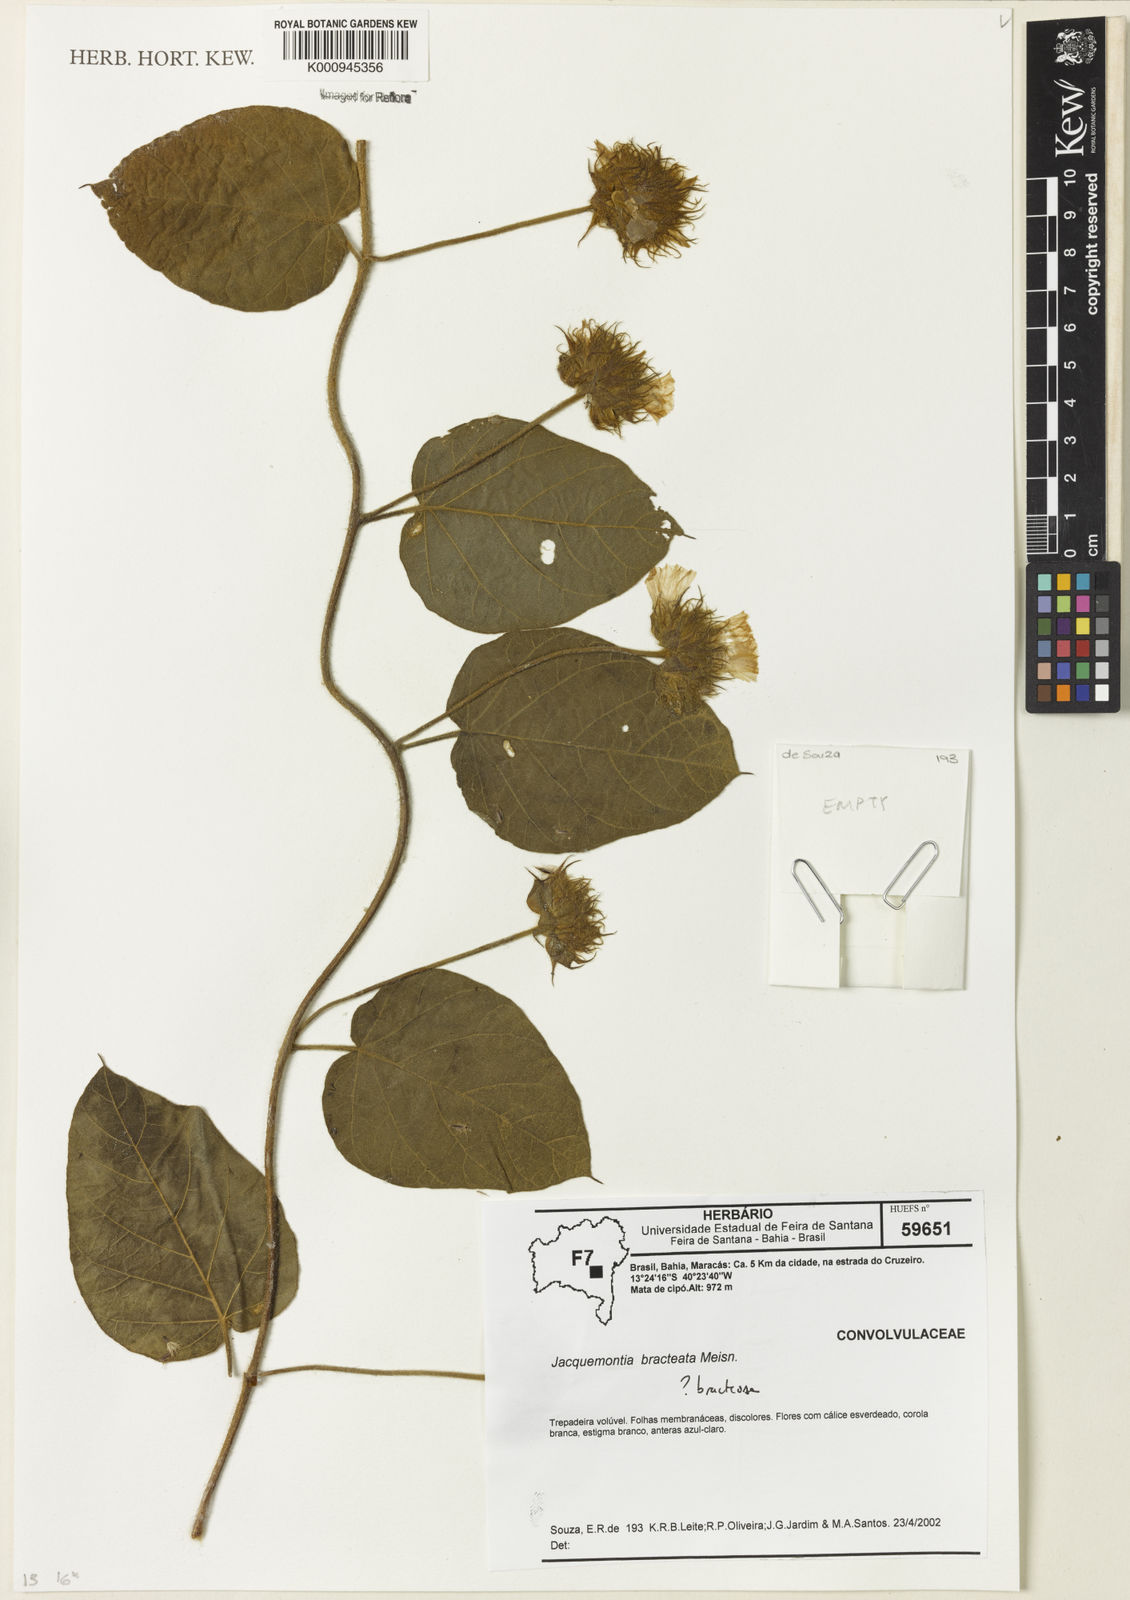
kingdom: Plantae
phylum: Tracheophyta
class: Magnoliopsida
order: Solanales
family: Convolvulaceae
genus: Jacquemontia
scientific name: Jacquemontia bracteosa
